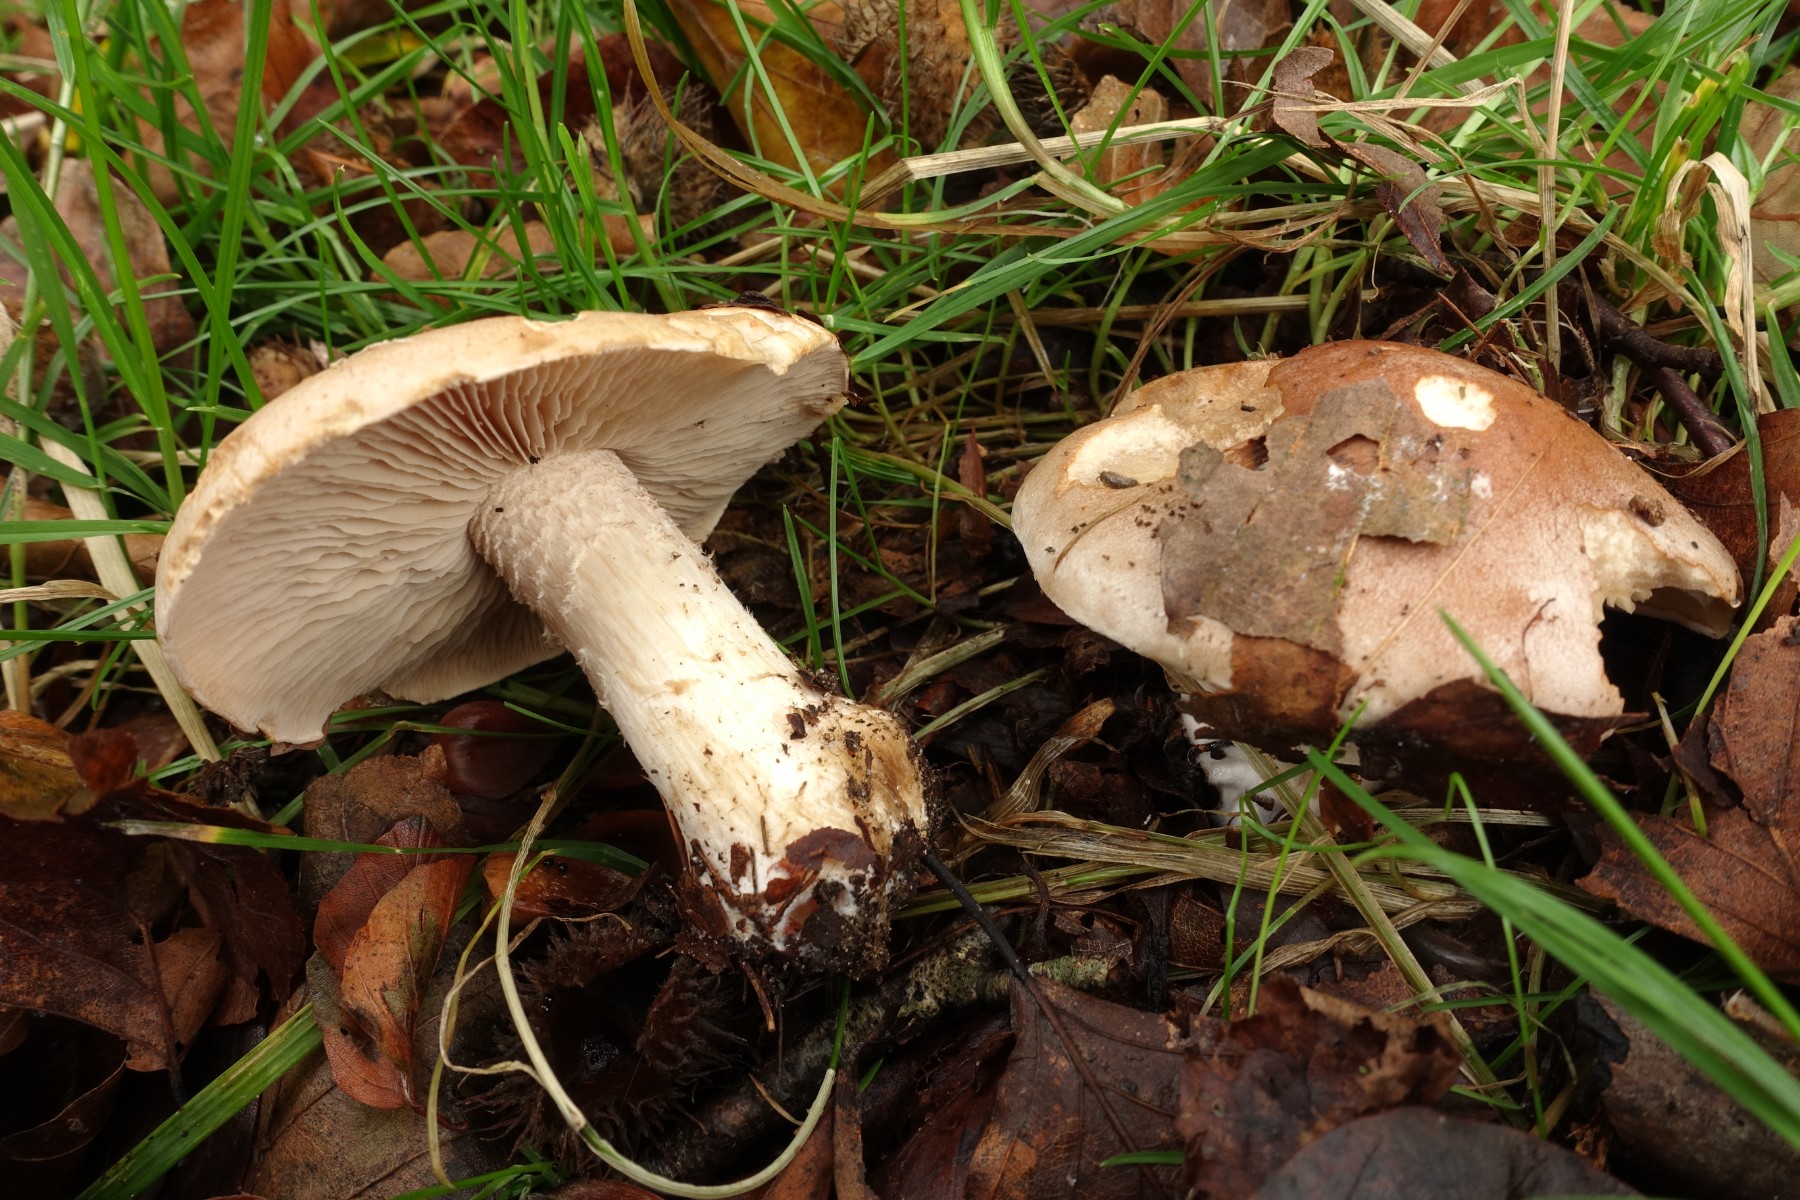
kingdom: Fungi
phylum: Basidiomycota
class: Agaricomycetes
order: Agaricales
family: Hymenogastraceae
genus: Hebeloma
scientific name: Hebeloma sinapizans
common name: ræddike-tåreblad
